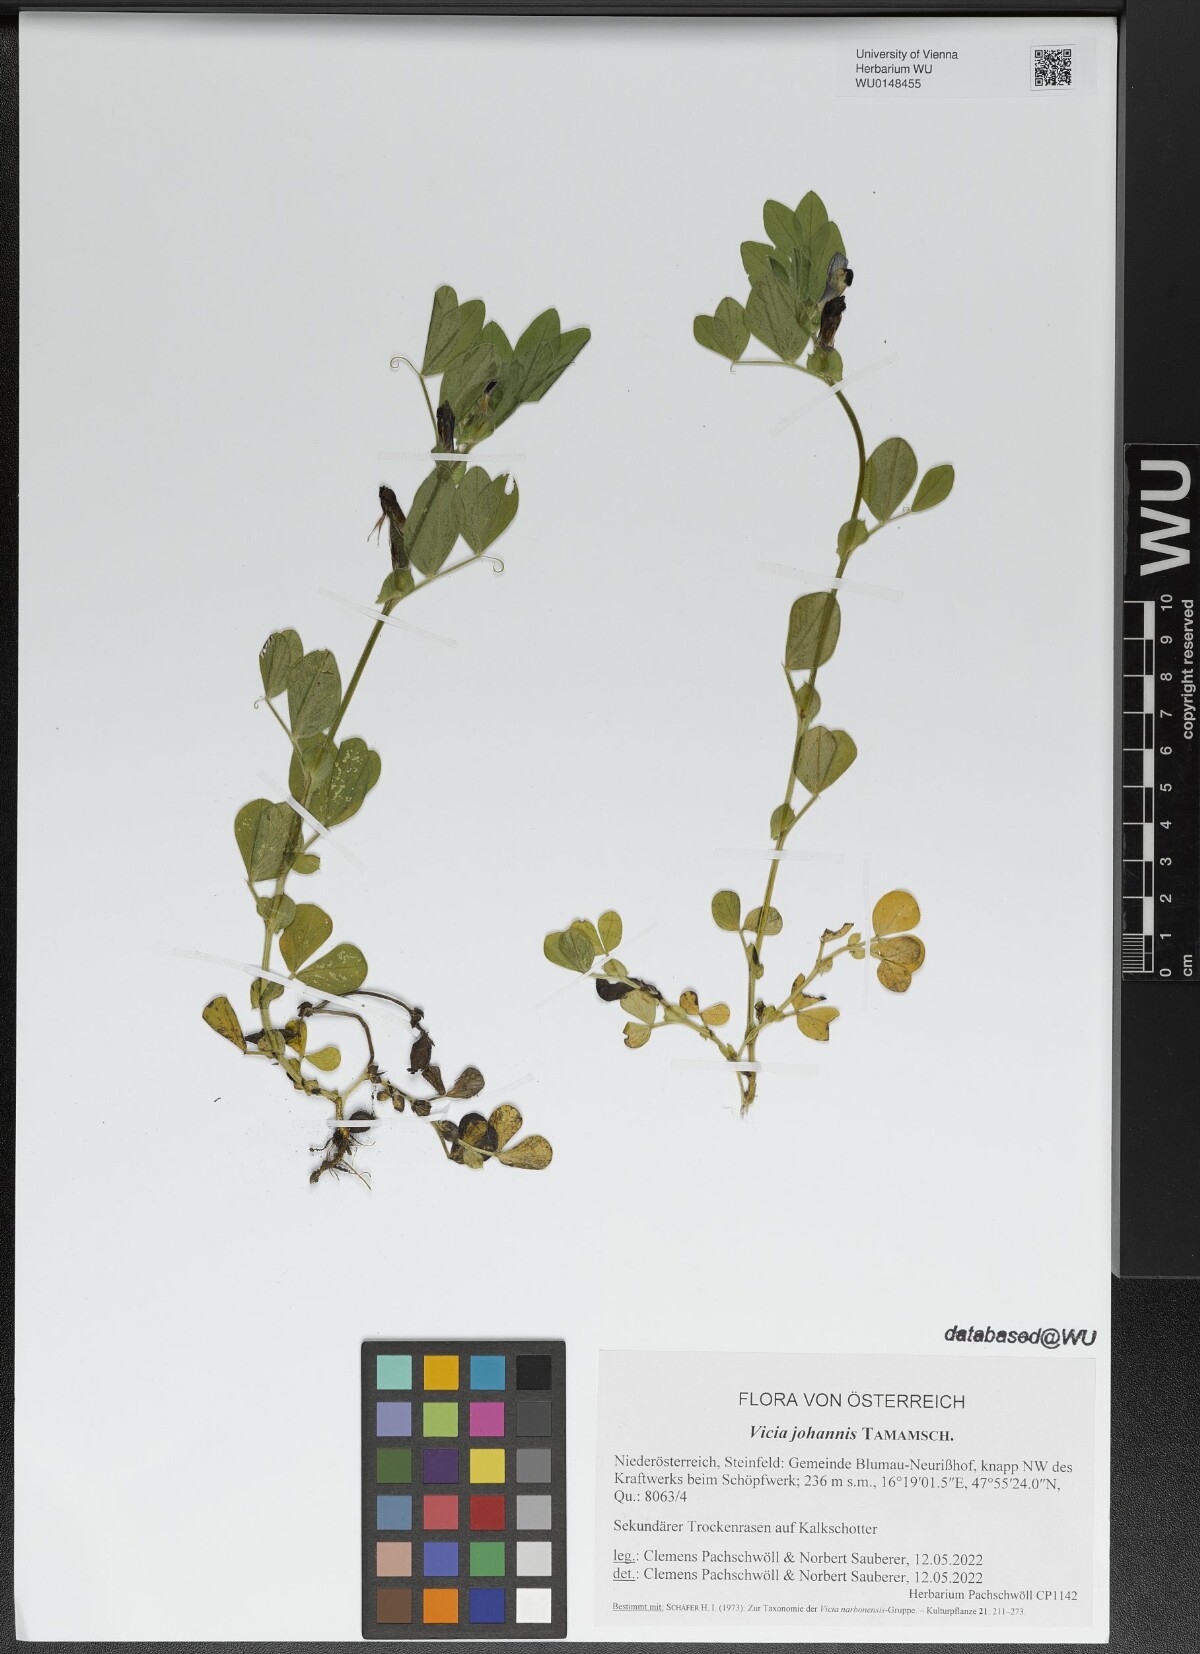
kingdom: Plantae
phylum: Tracheophyta
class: Magnoliopsida
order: Fabales
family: Fabaceae
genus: Vicia
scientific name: Vicia johannis
